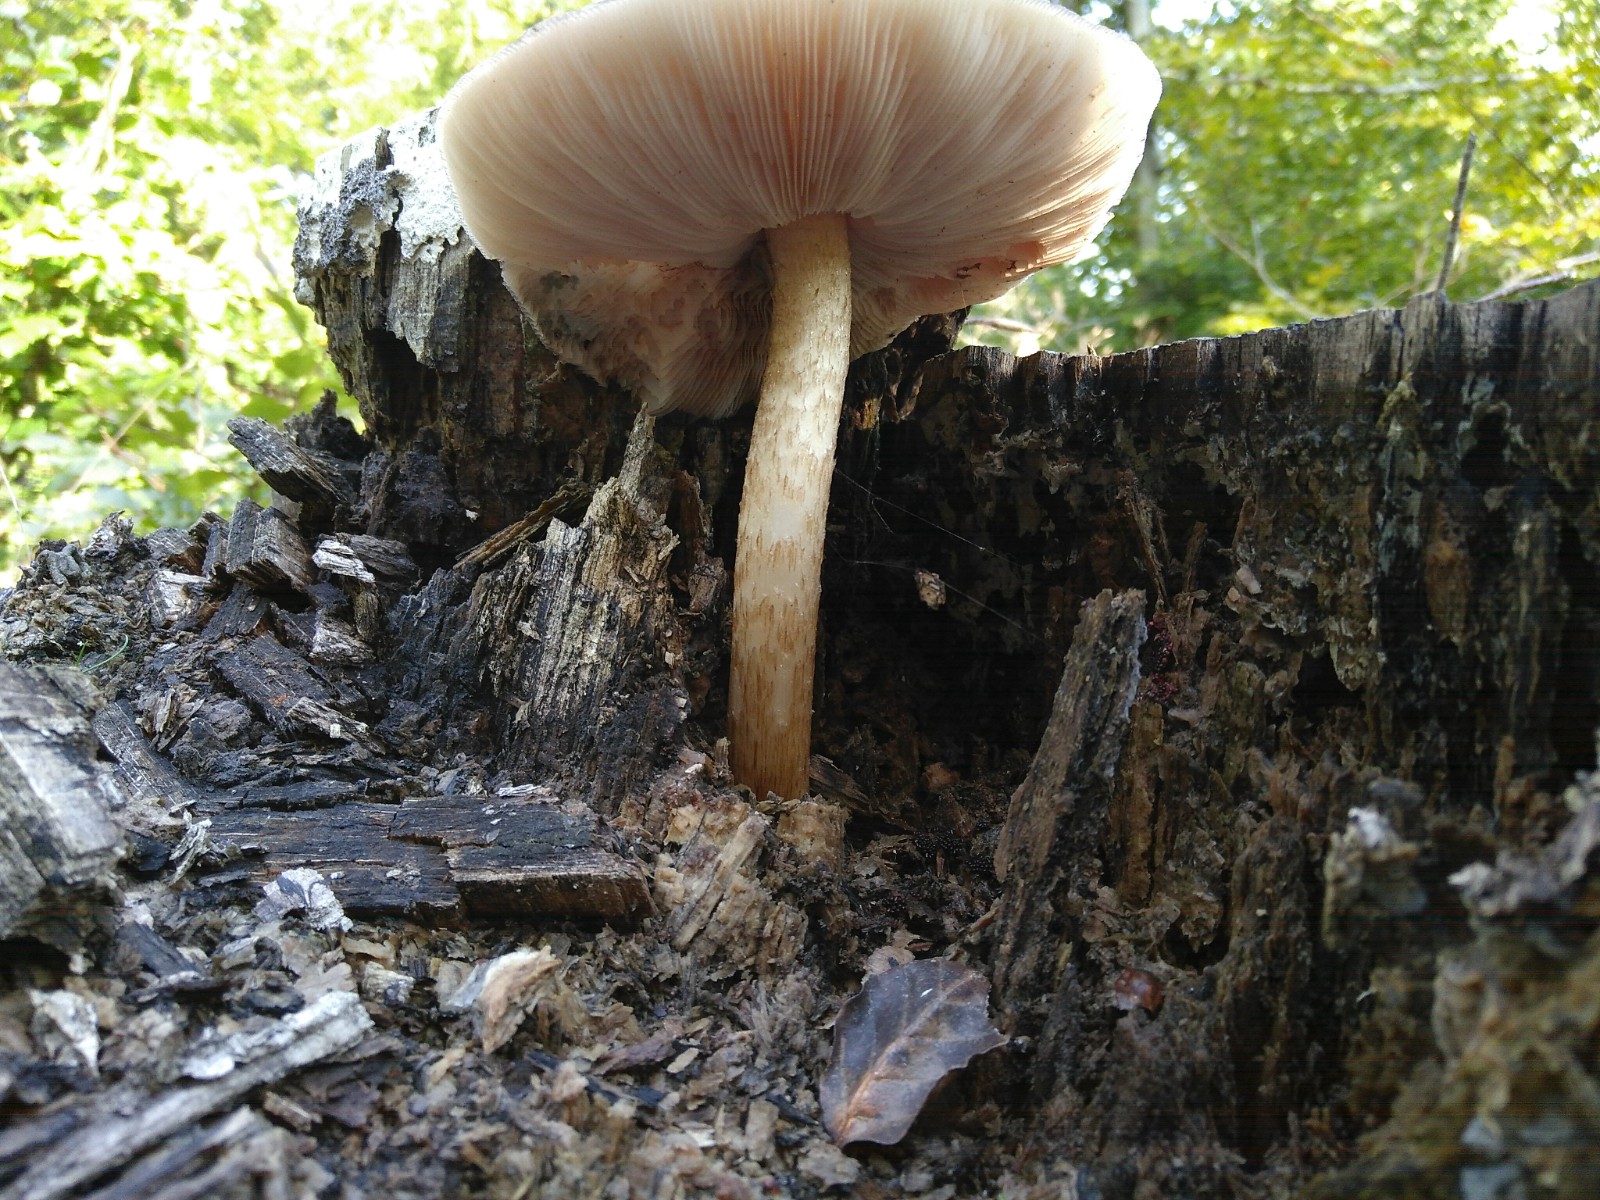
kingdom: Fungi
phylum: Basidiomycota
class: Agaricomycetes
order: Agaricales
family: Pluteaceae
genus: Pluteus
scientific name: Pluteus cervinus
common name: sodfarvet skærmhat
